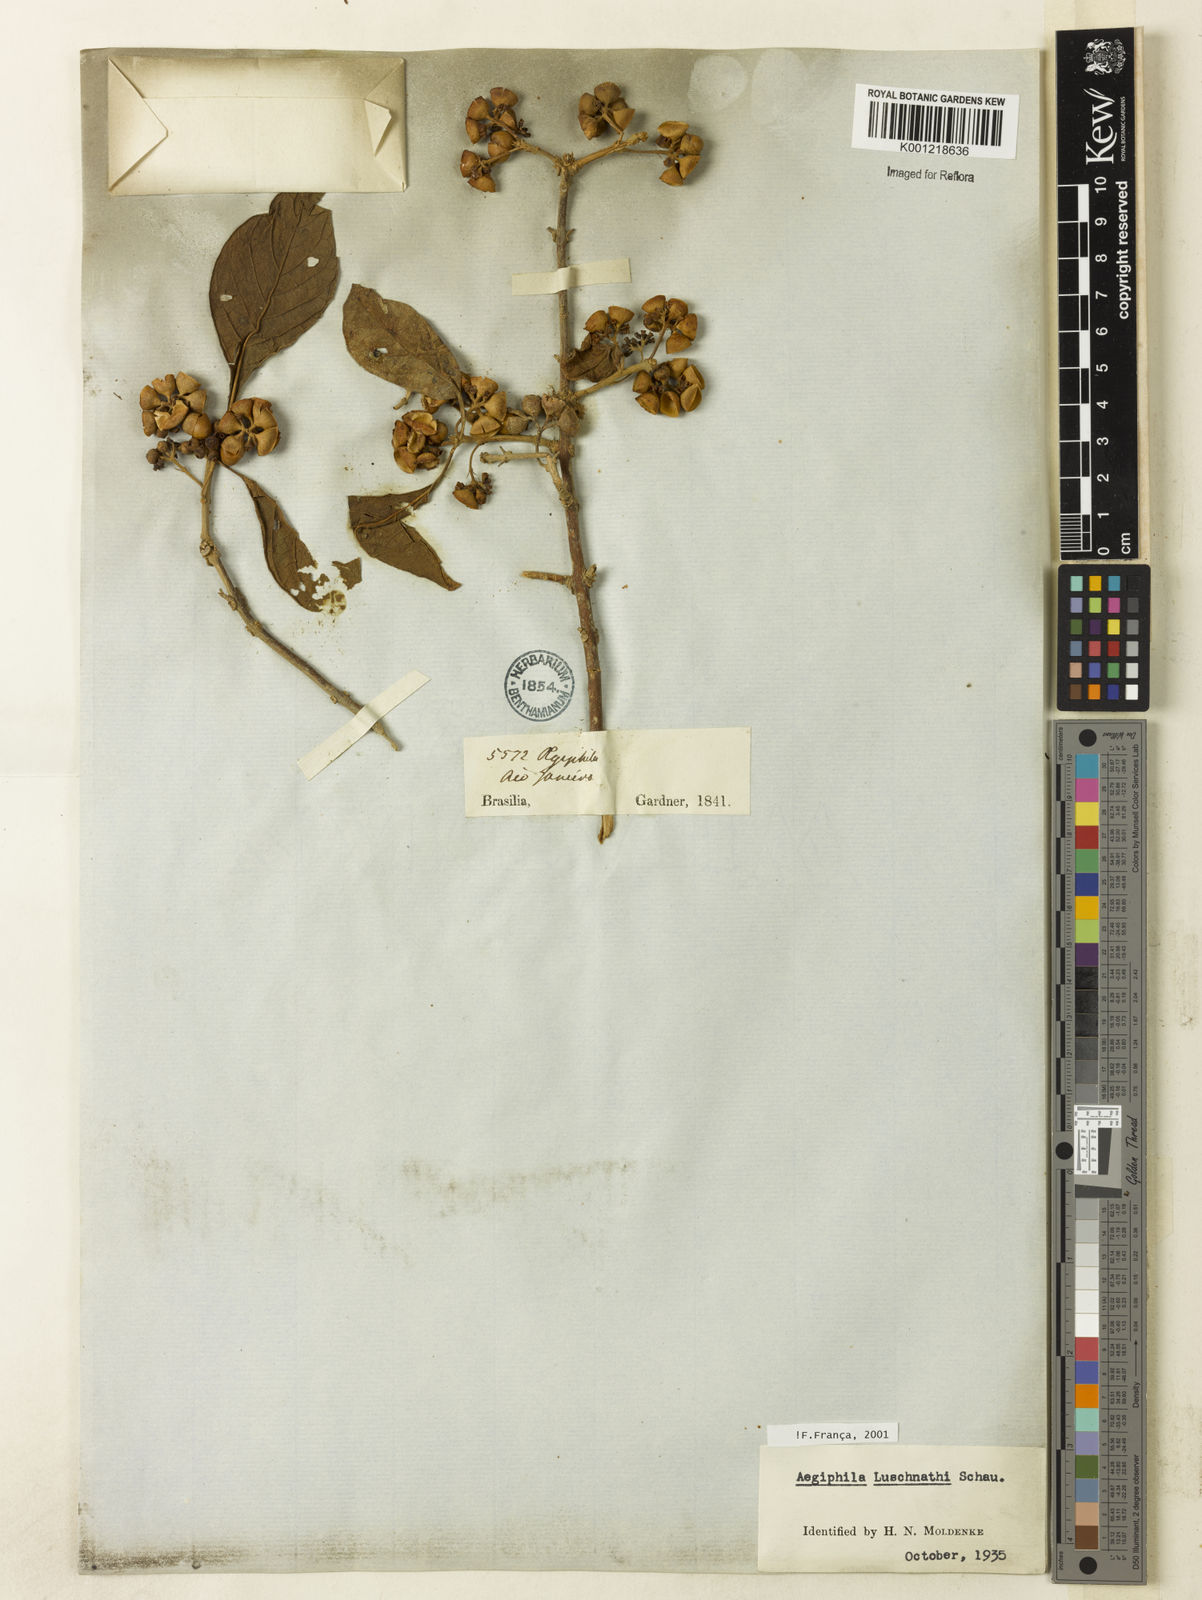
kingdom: Plantae
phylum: Tracheophyta
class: Magnoliopsida
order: Lamiales
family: Lamiaceae
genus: Aegiphila
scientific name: Aegiphila luschnathii
